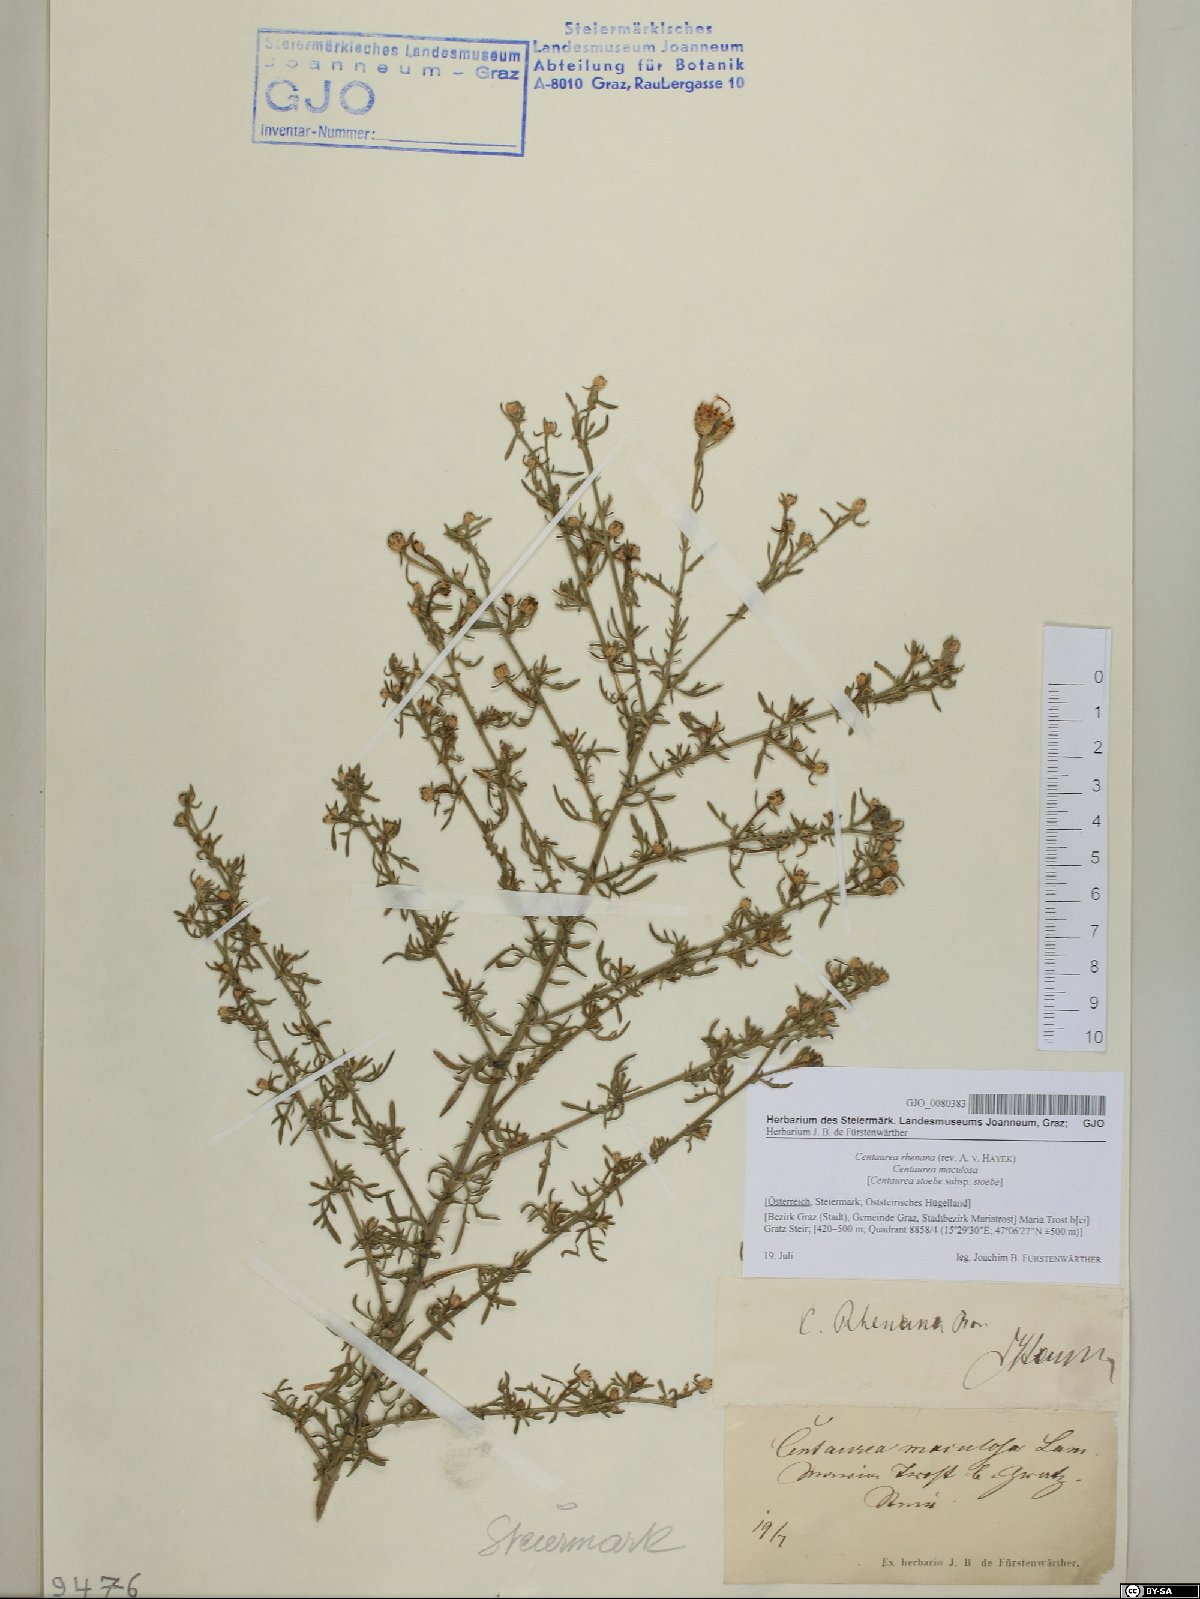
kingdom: Plantae
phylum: Tracheophyta
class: Magnoliopsida
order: Asterales
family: Asteraceae
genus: Centaurea
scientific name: Centaurea stoebe
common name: Spotted knapweed
